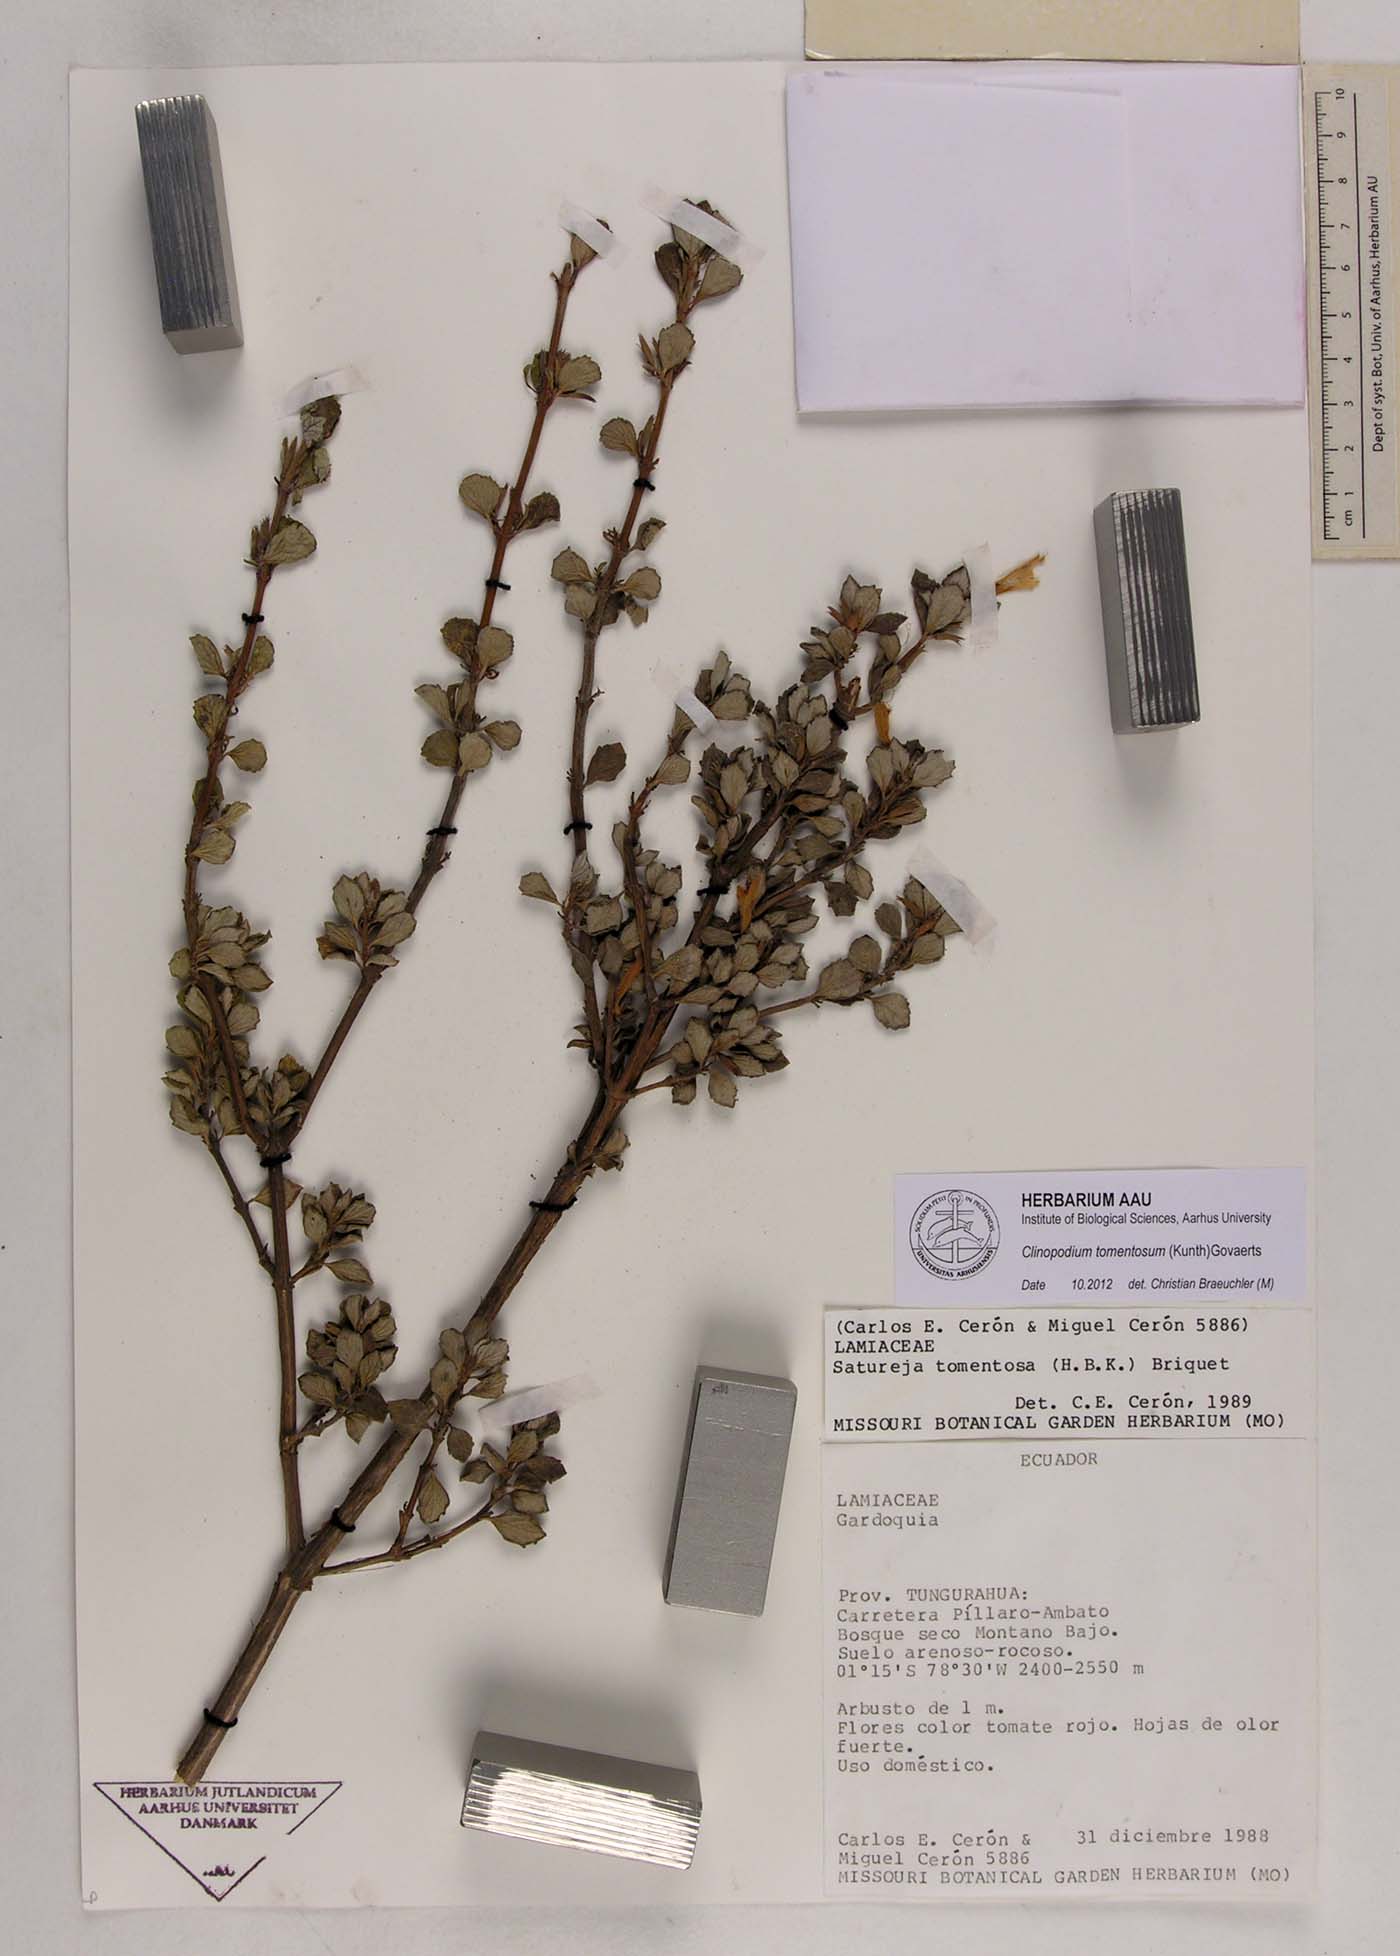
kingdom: Plantae
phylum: Tracheophyta
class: Magnoliopsida
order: Lamiales
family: Lamiaceae
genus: Clinopodium
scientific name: Clinopodium tomentosum
